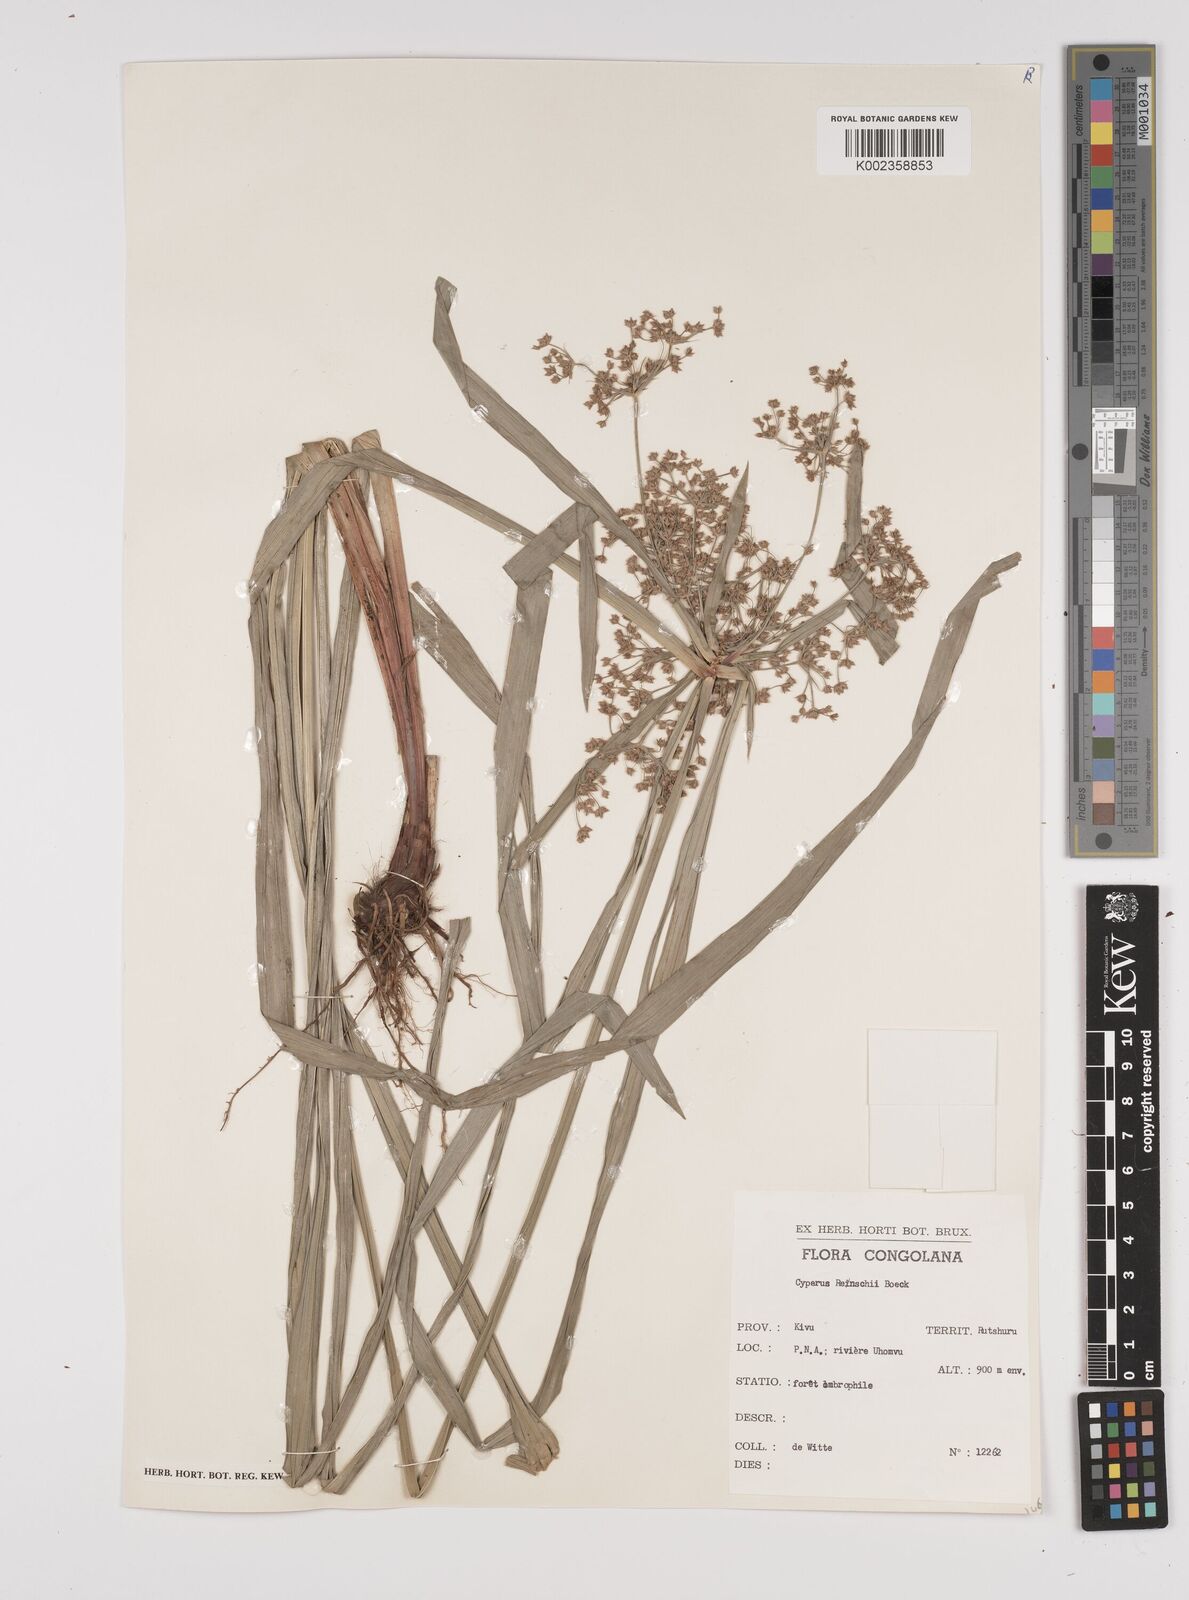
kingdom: Plantae
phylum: Tracheophyta
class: Liliopsida
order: Poales
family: Cyperaceae
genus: Cyperus
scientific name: Cyperus glaucophyllus
